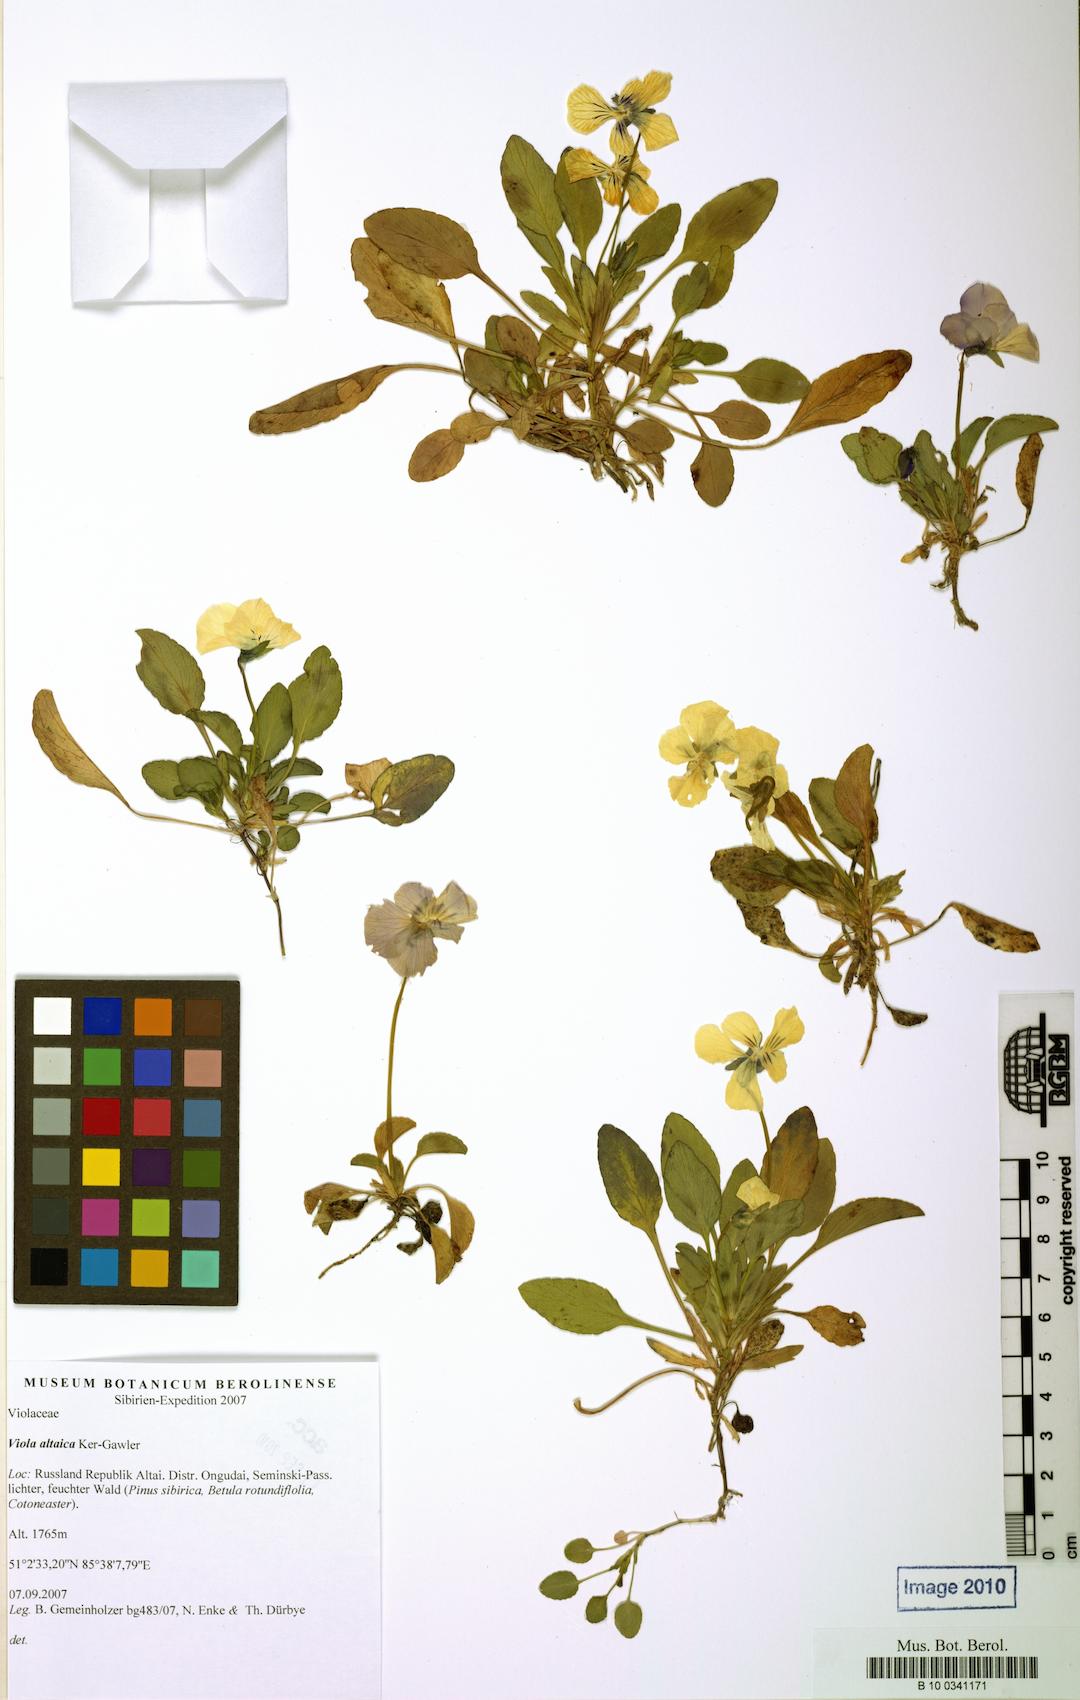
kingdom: Plantae
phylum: Tracheophyta
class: Magnoliopsida
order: Malpighiales
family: Violaceae
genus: Viola
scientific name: Viola altaica
